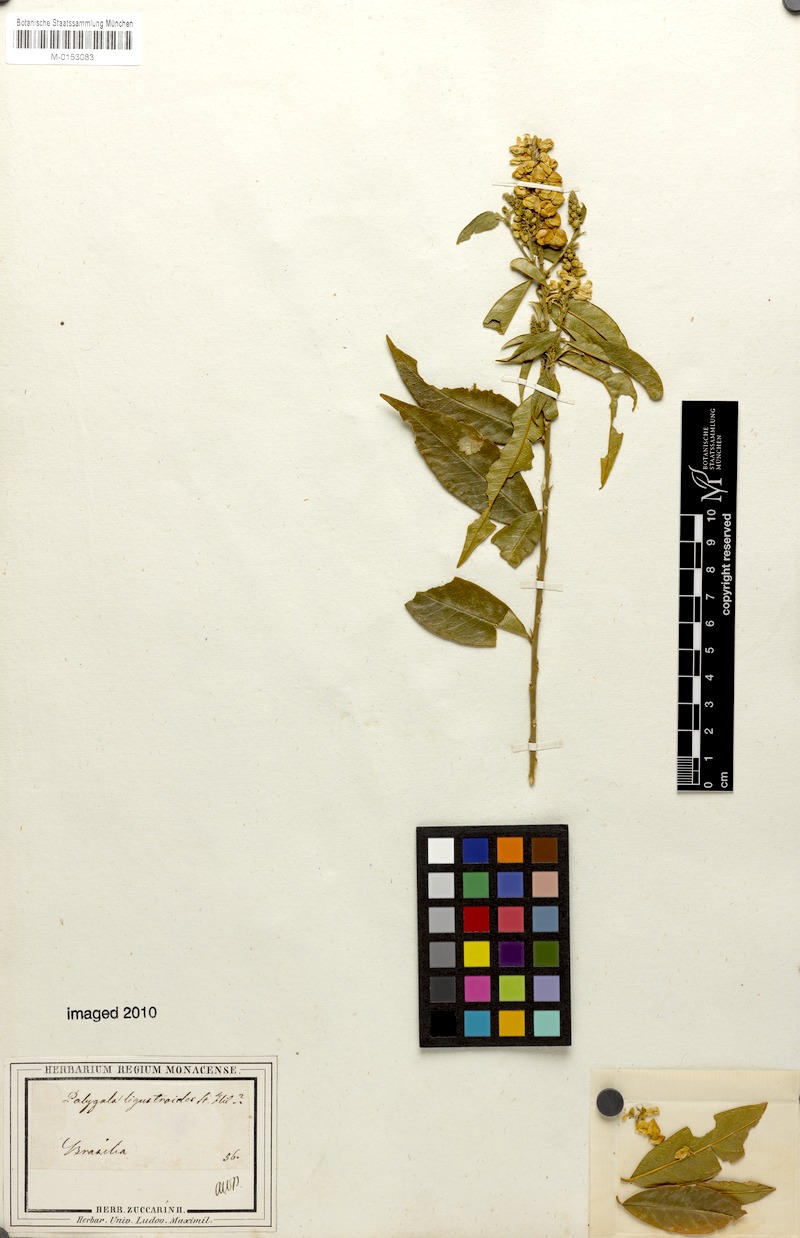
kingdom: Plantae
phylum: Tracheophyta
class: Magnoliopsida
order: Fabales
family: Polygalaceae
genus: Caamembeca
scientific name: Caamembeca oxyphylla
